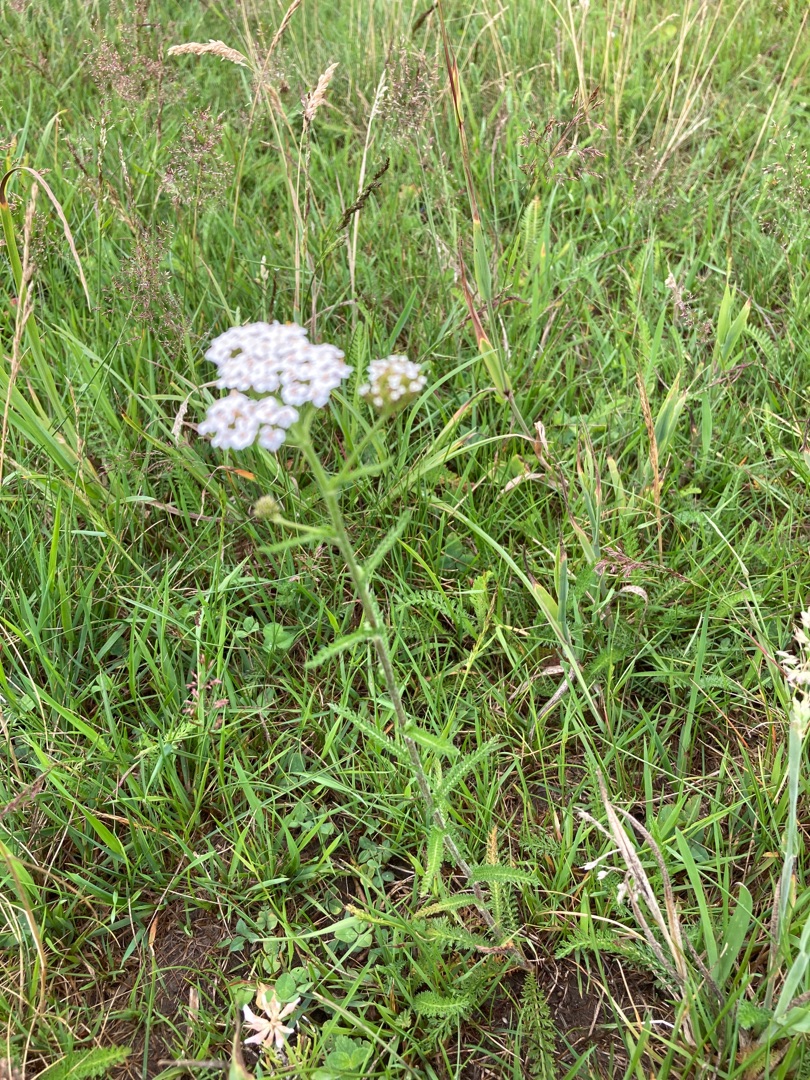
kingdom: Plantae
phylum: Tracheophyta
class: Magnoliopsida
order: Asterales
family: Asteraceae
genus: Achillea
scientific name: Achillea millefolium
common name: Almindelig røllike
